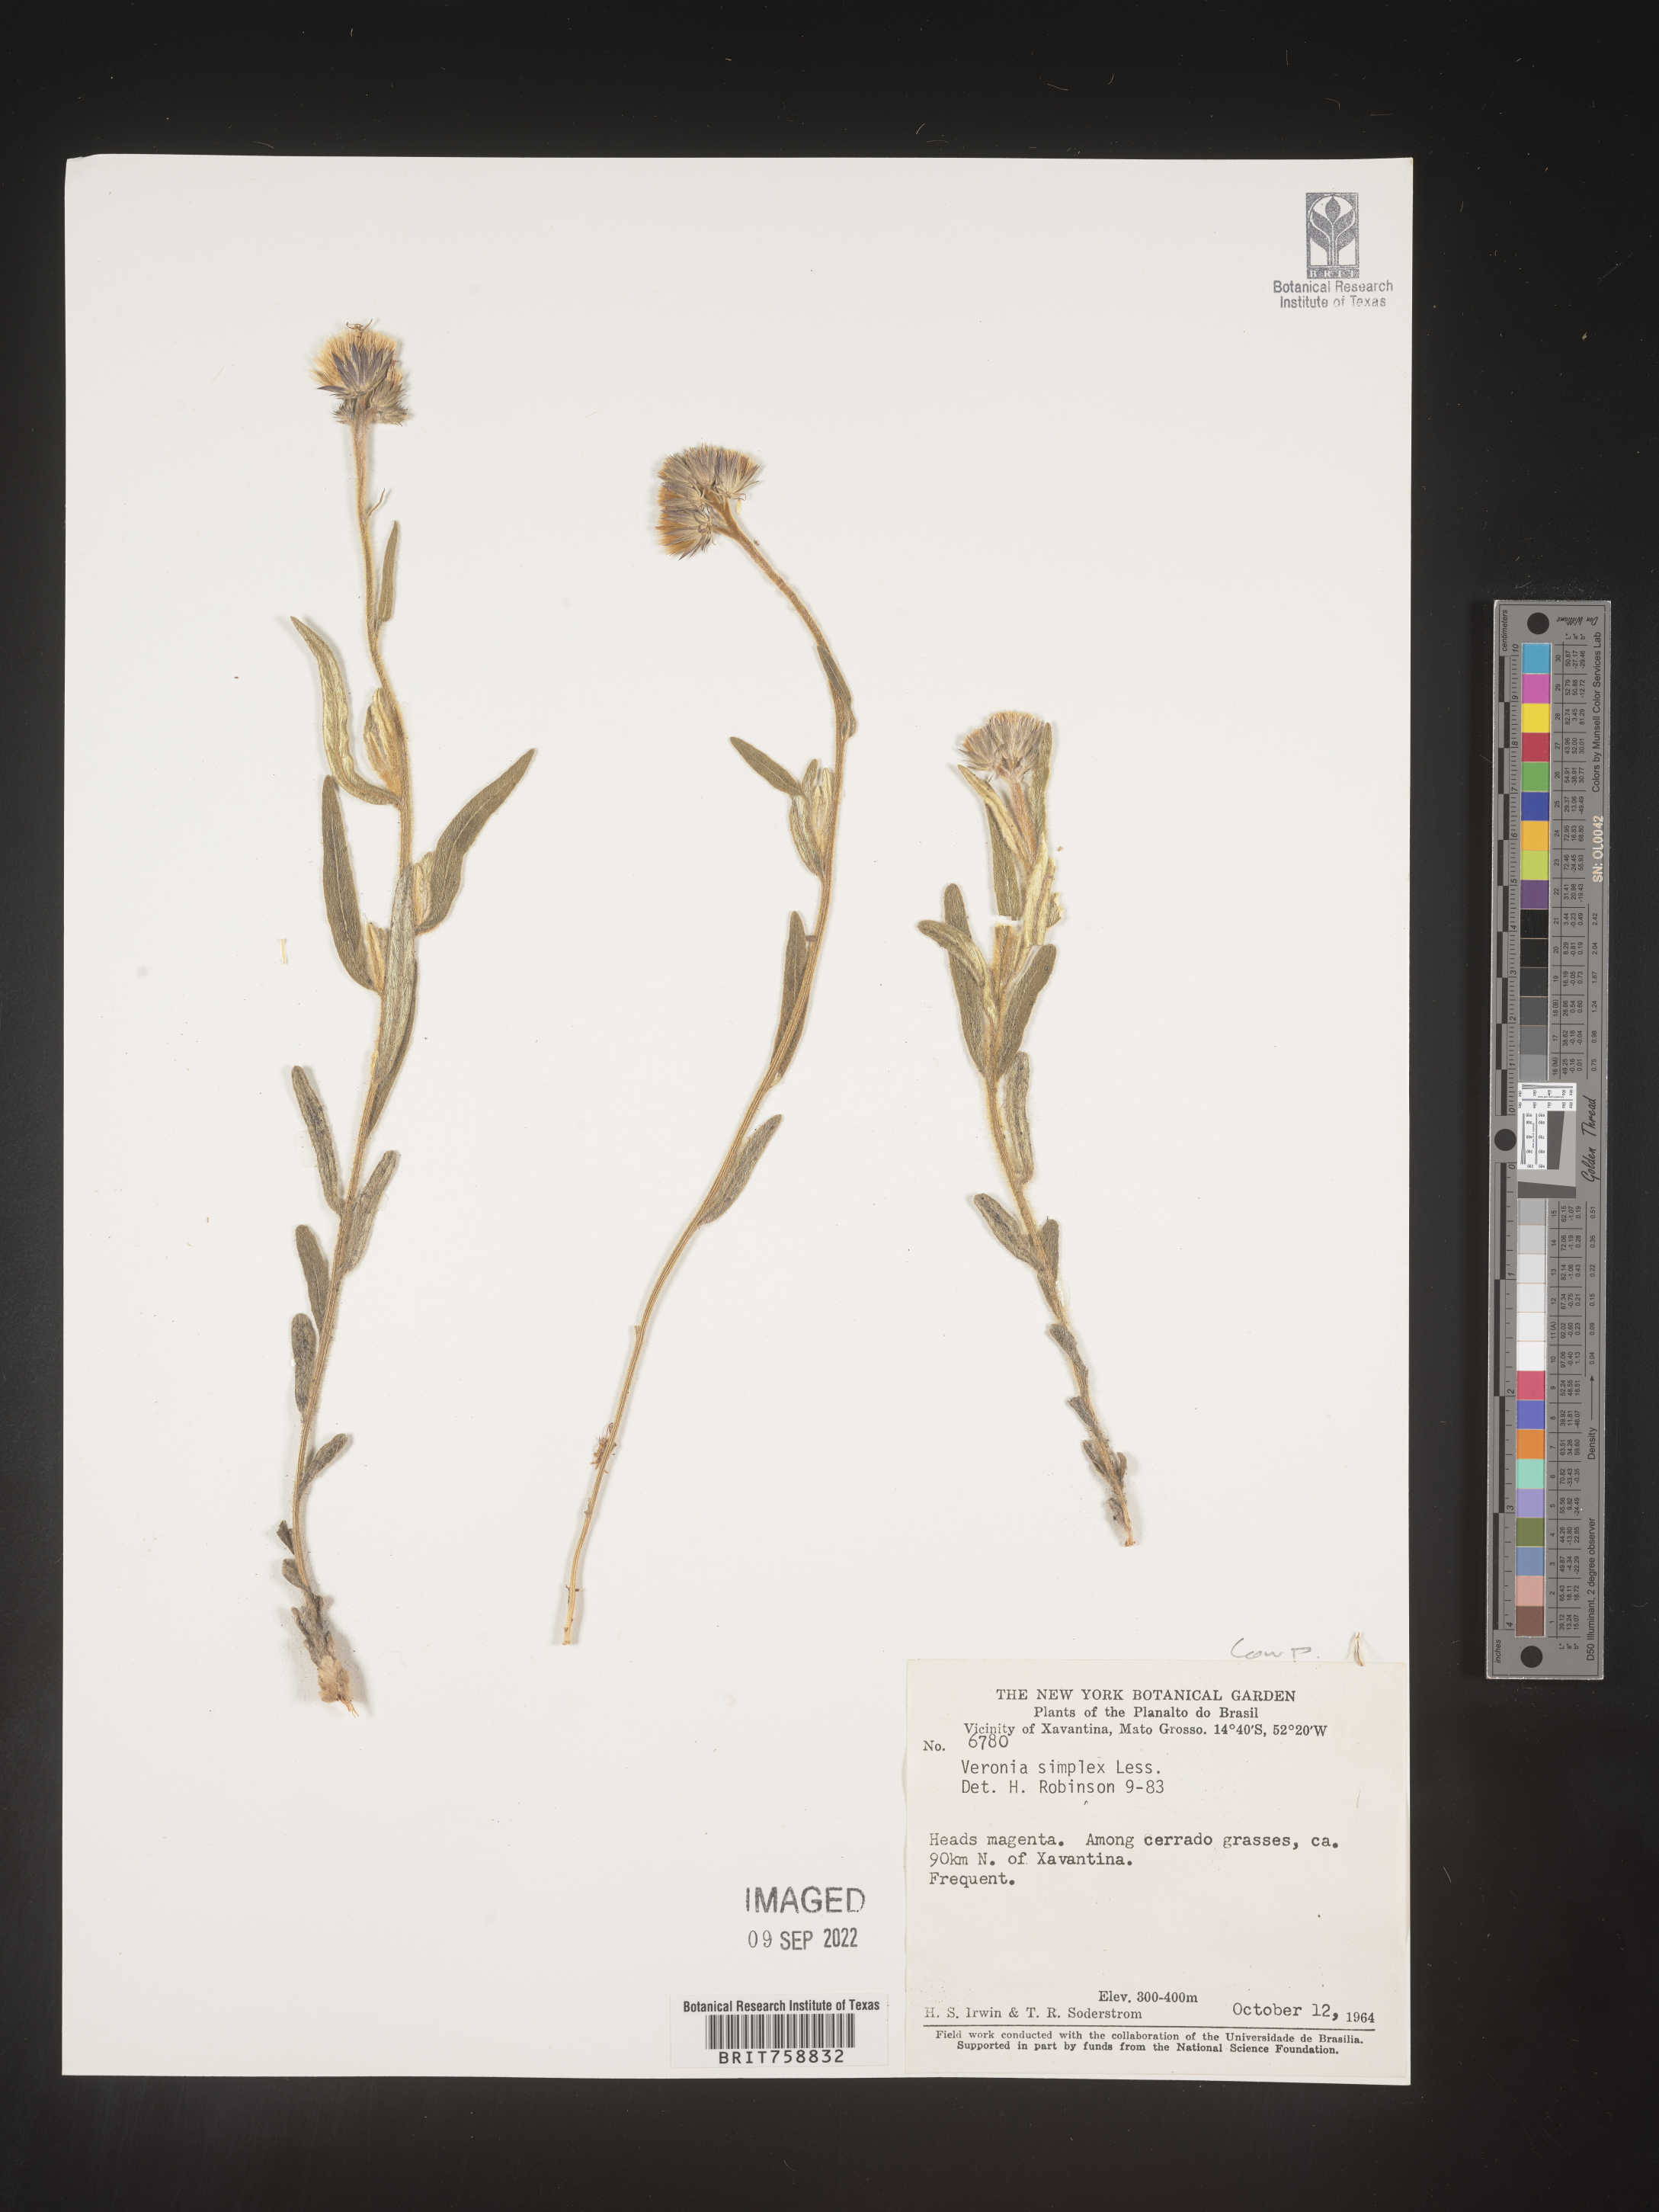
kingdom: Plantae
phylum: Tracheophyta
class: Magnoliopsida
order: Asterales
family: Asteraceae
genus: Vernonia
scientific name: Vernonia
